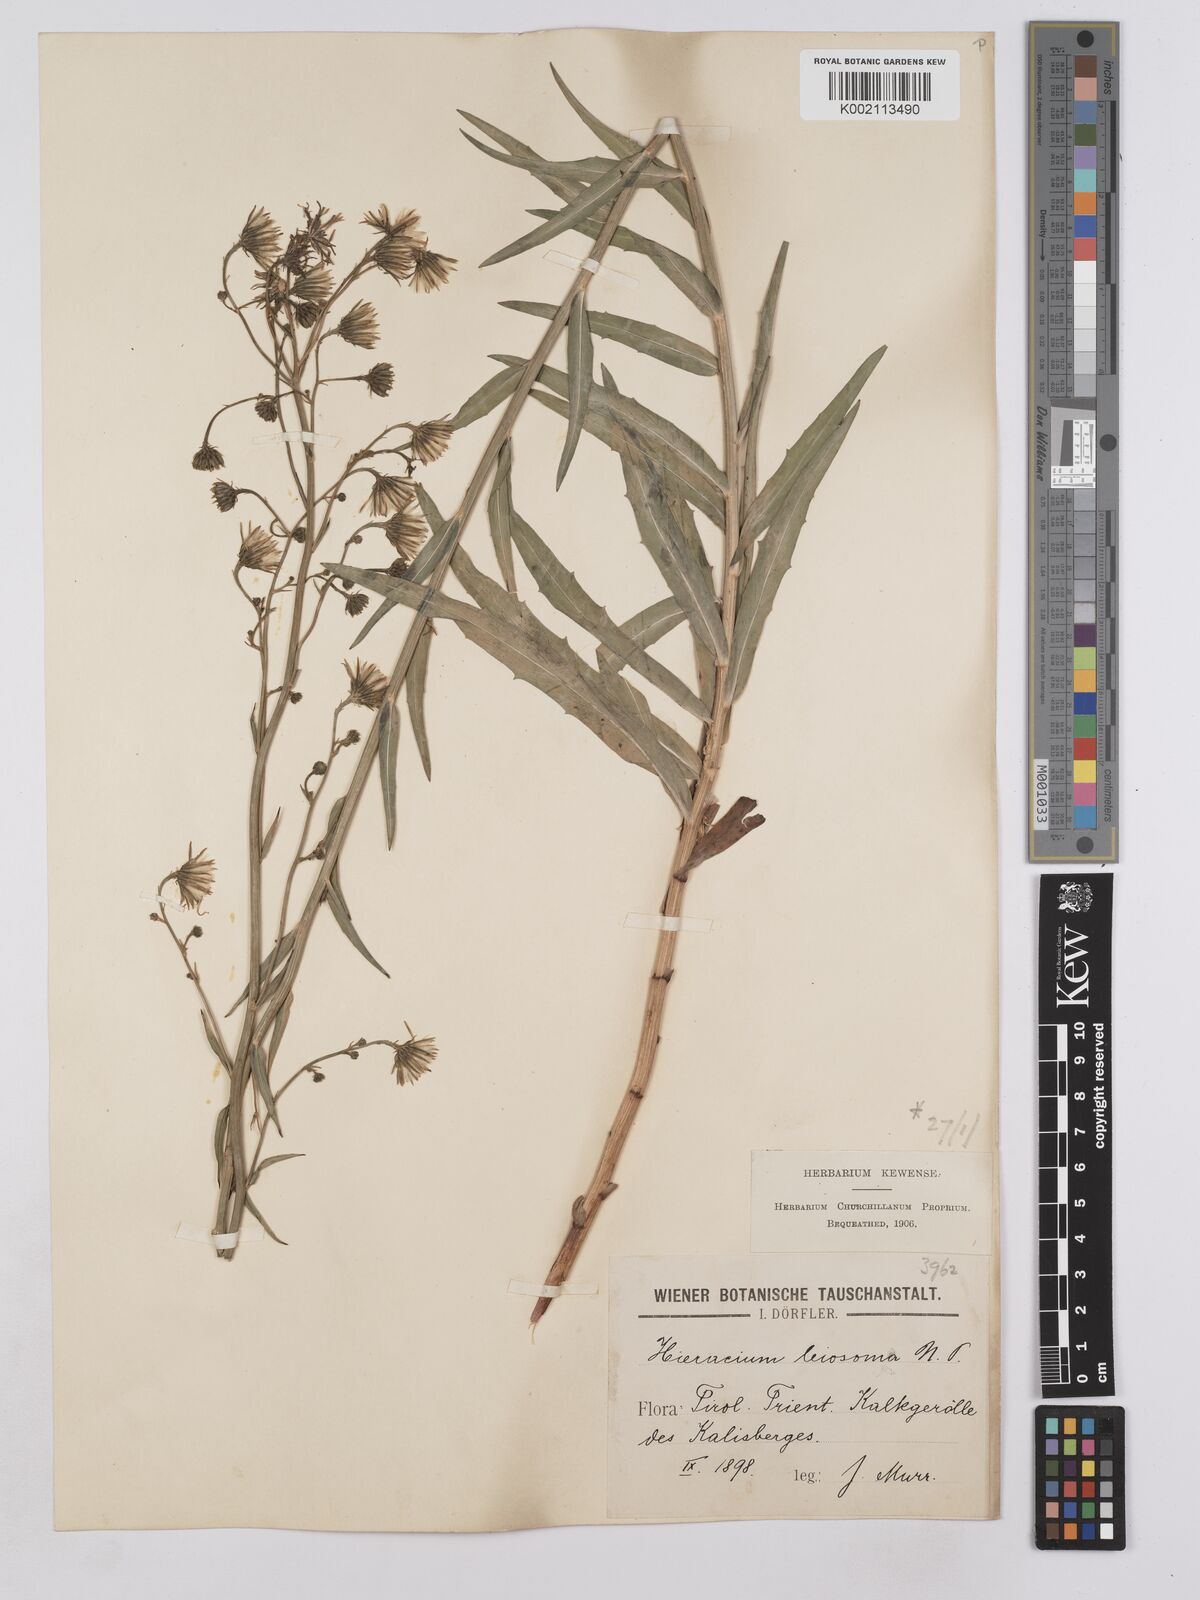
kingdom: Plantae
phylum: Tracheophyta
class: Magnoliopsida
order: Asterales
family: Asteraceae
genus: Hieracium
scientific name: Hieracium leiocephalum
